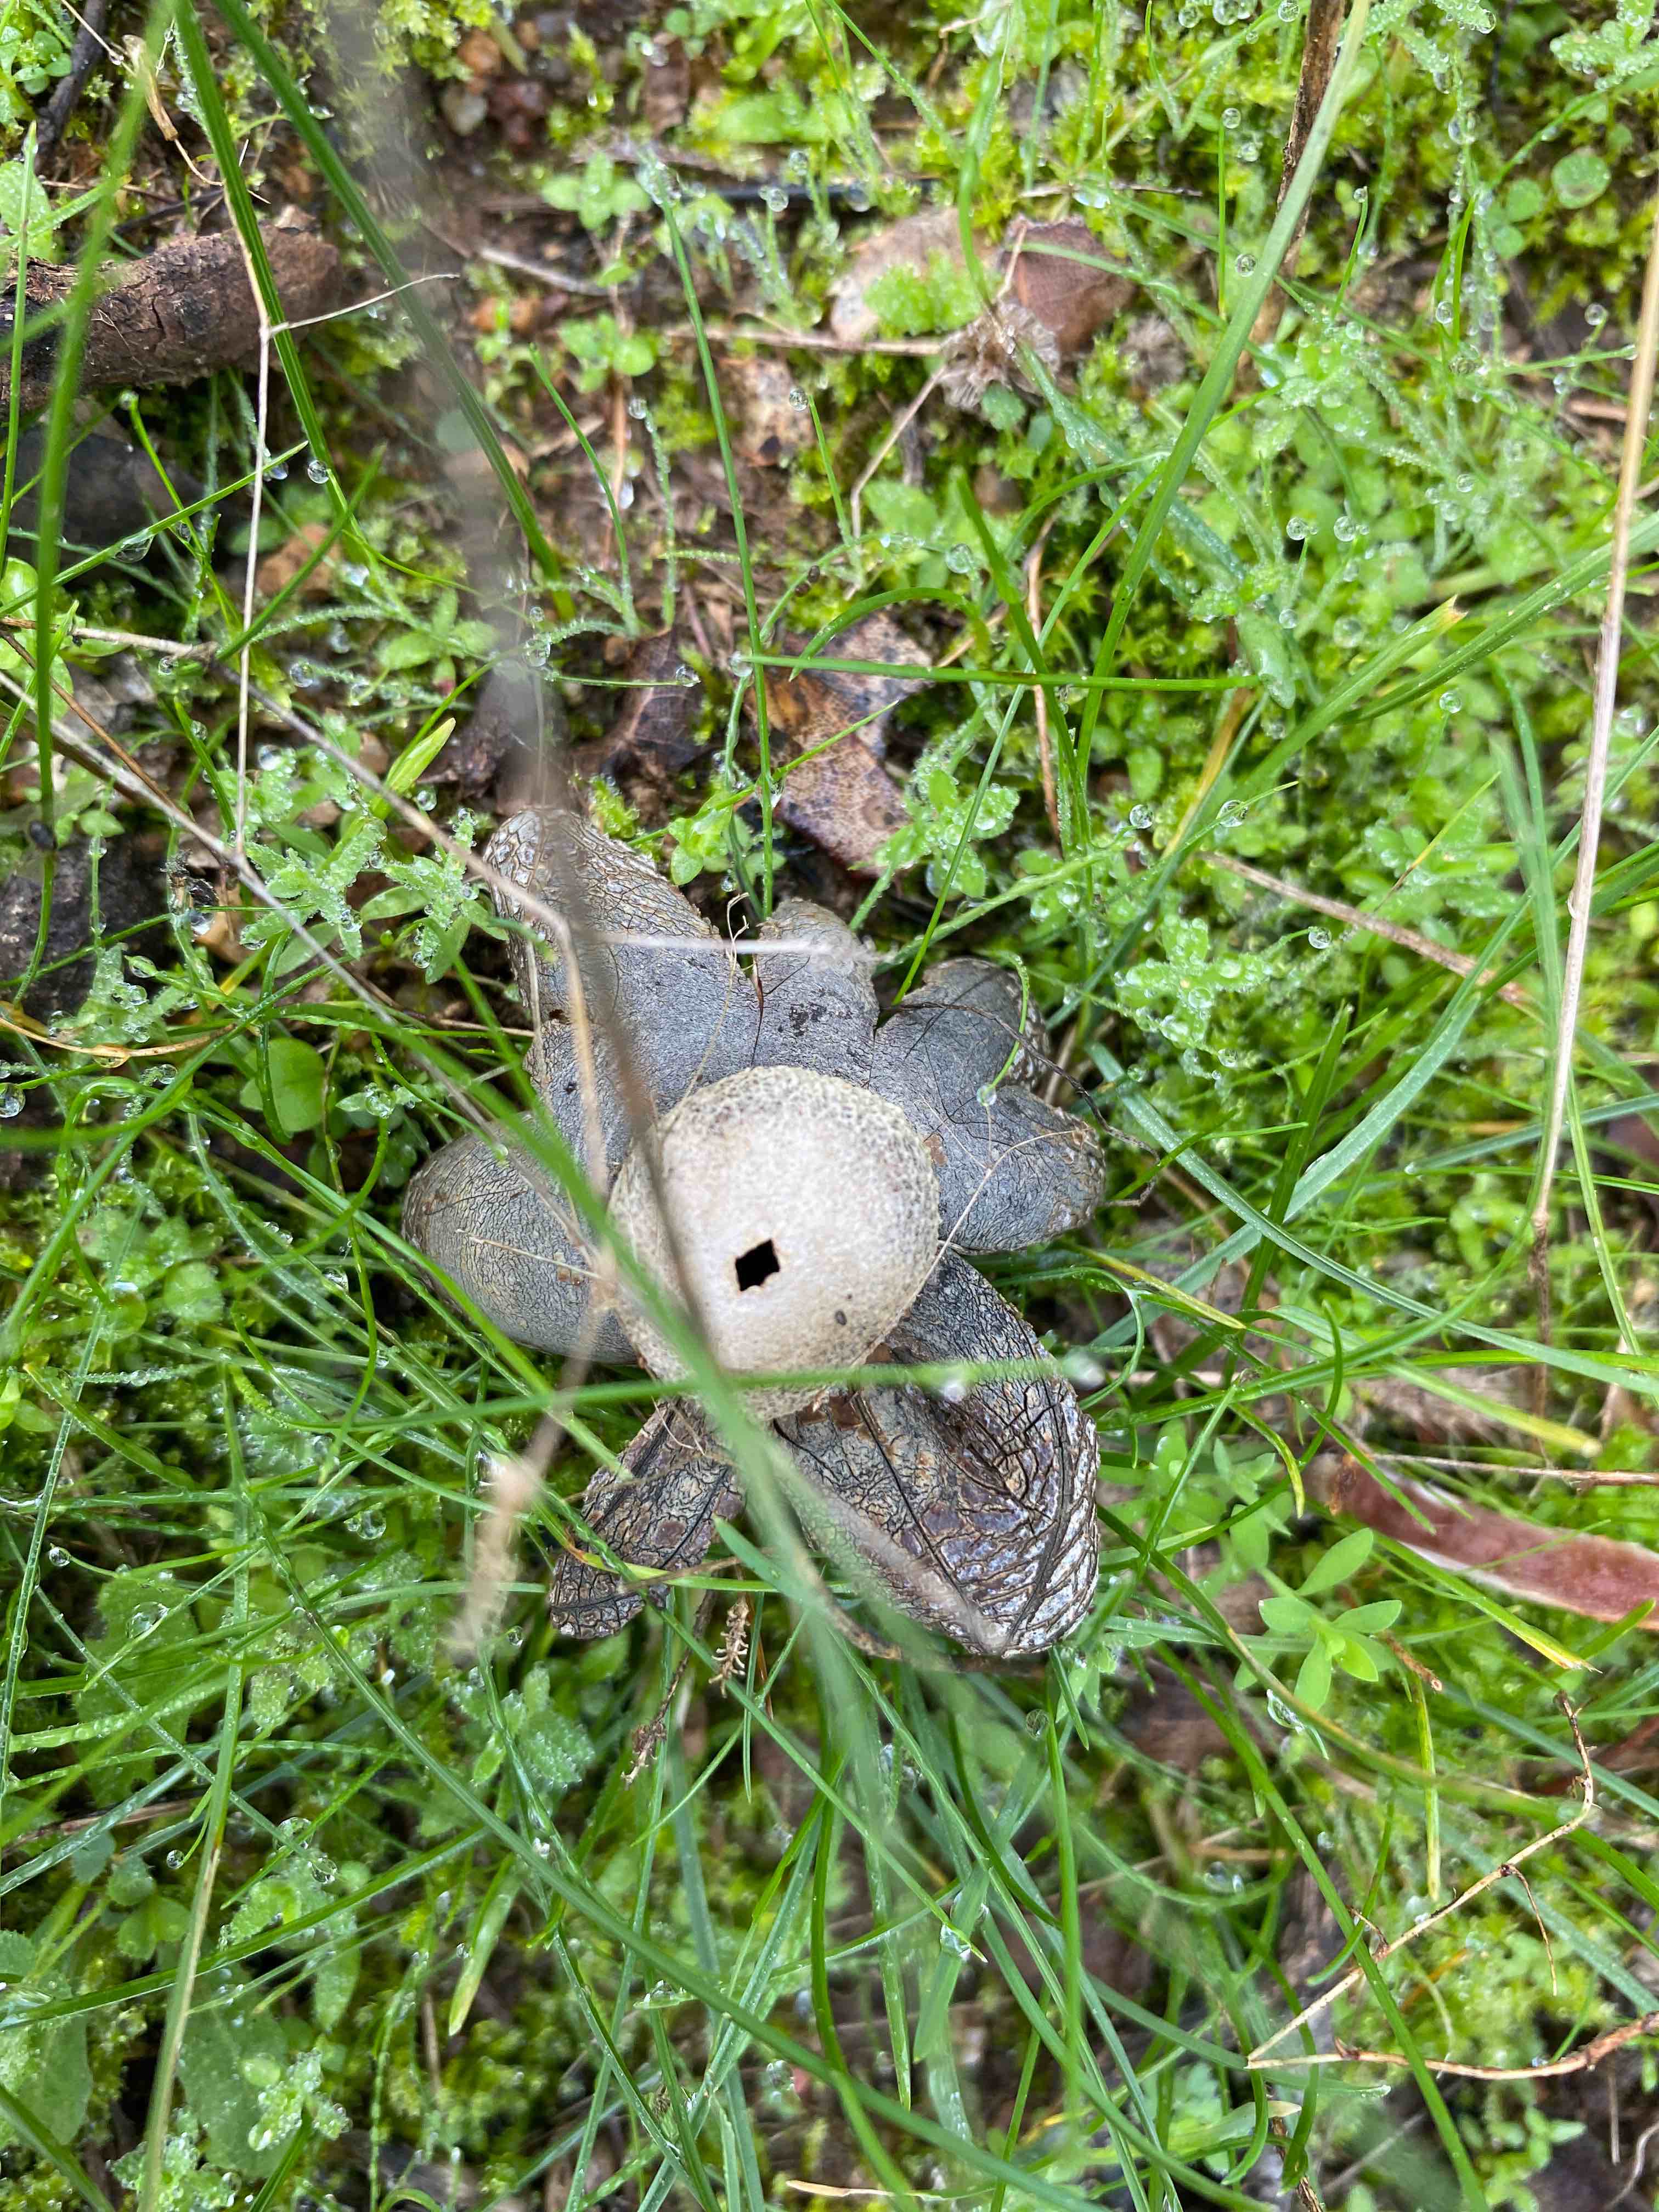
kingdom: Fungi
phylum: Basidiomycota
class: Agaricomycetes
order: Boletales
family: Diplocystidiaceae
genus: Astraeus
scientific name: Astraeus
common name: hygrometerstjerne
